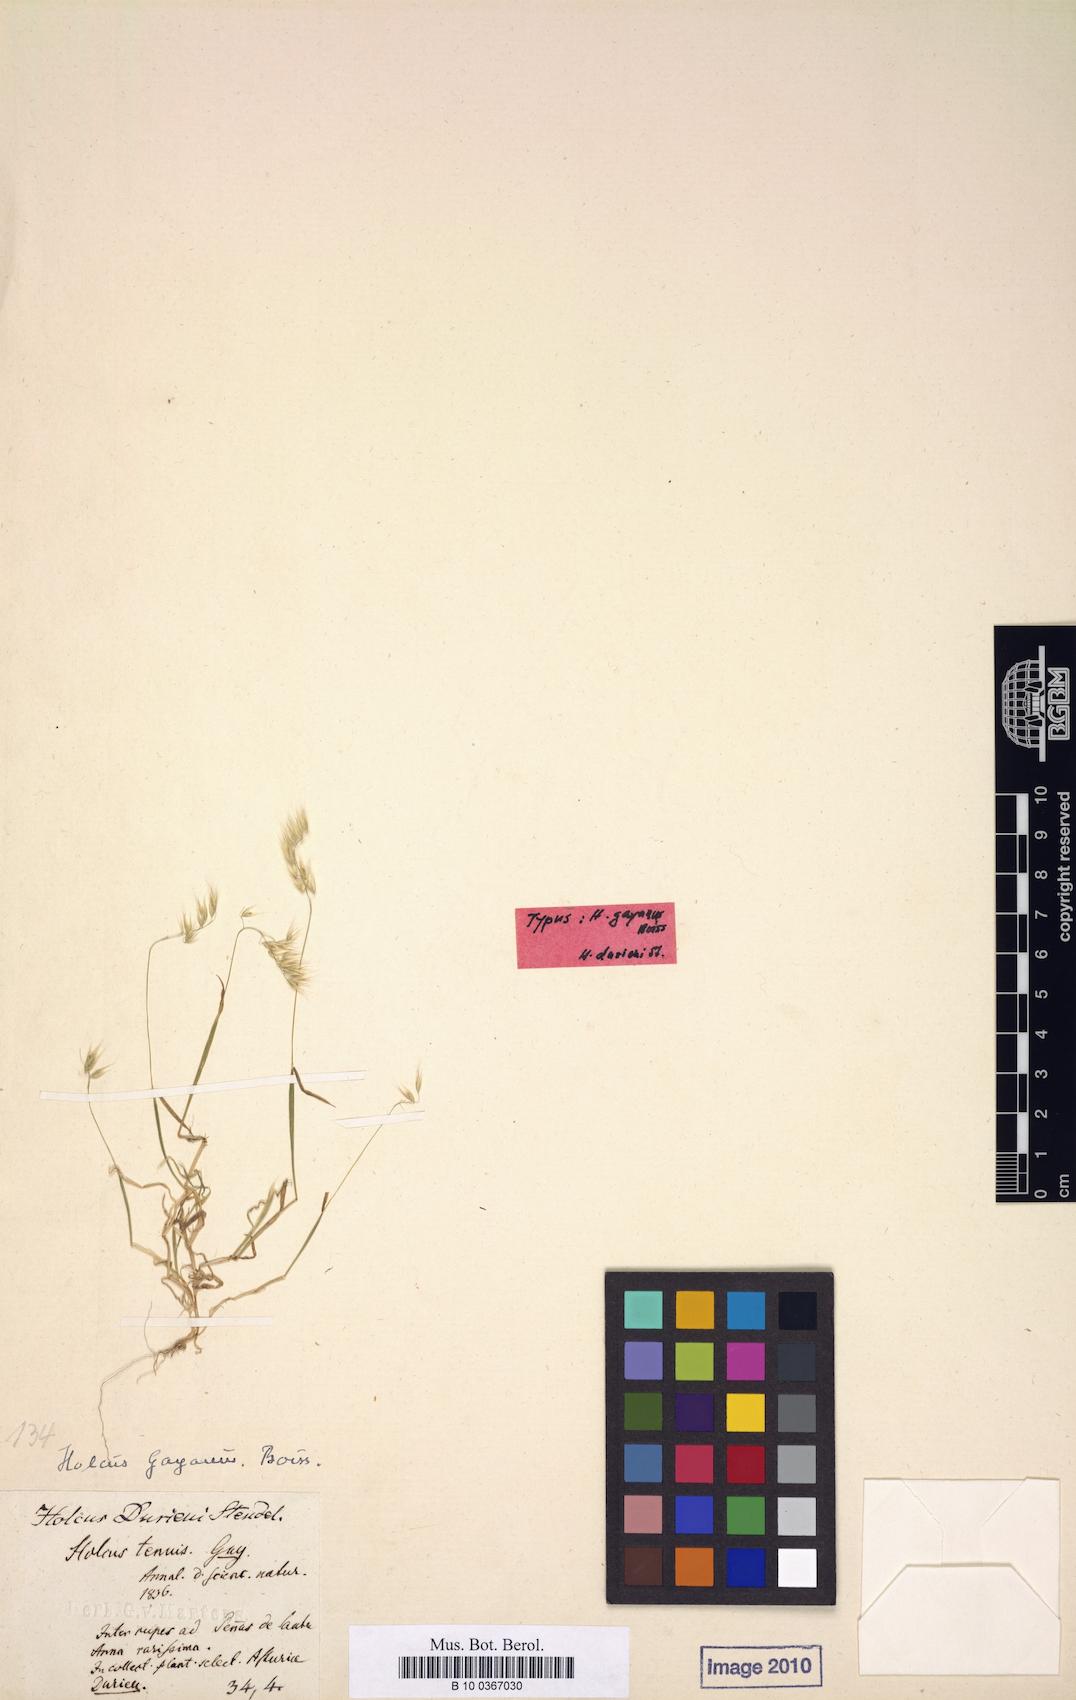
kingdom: Plantae
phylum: Tracheophyta
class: Liliopsida
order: Poales
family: Poaceae
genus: Holcus
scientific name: Holcus gayanus
